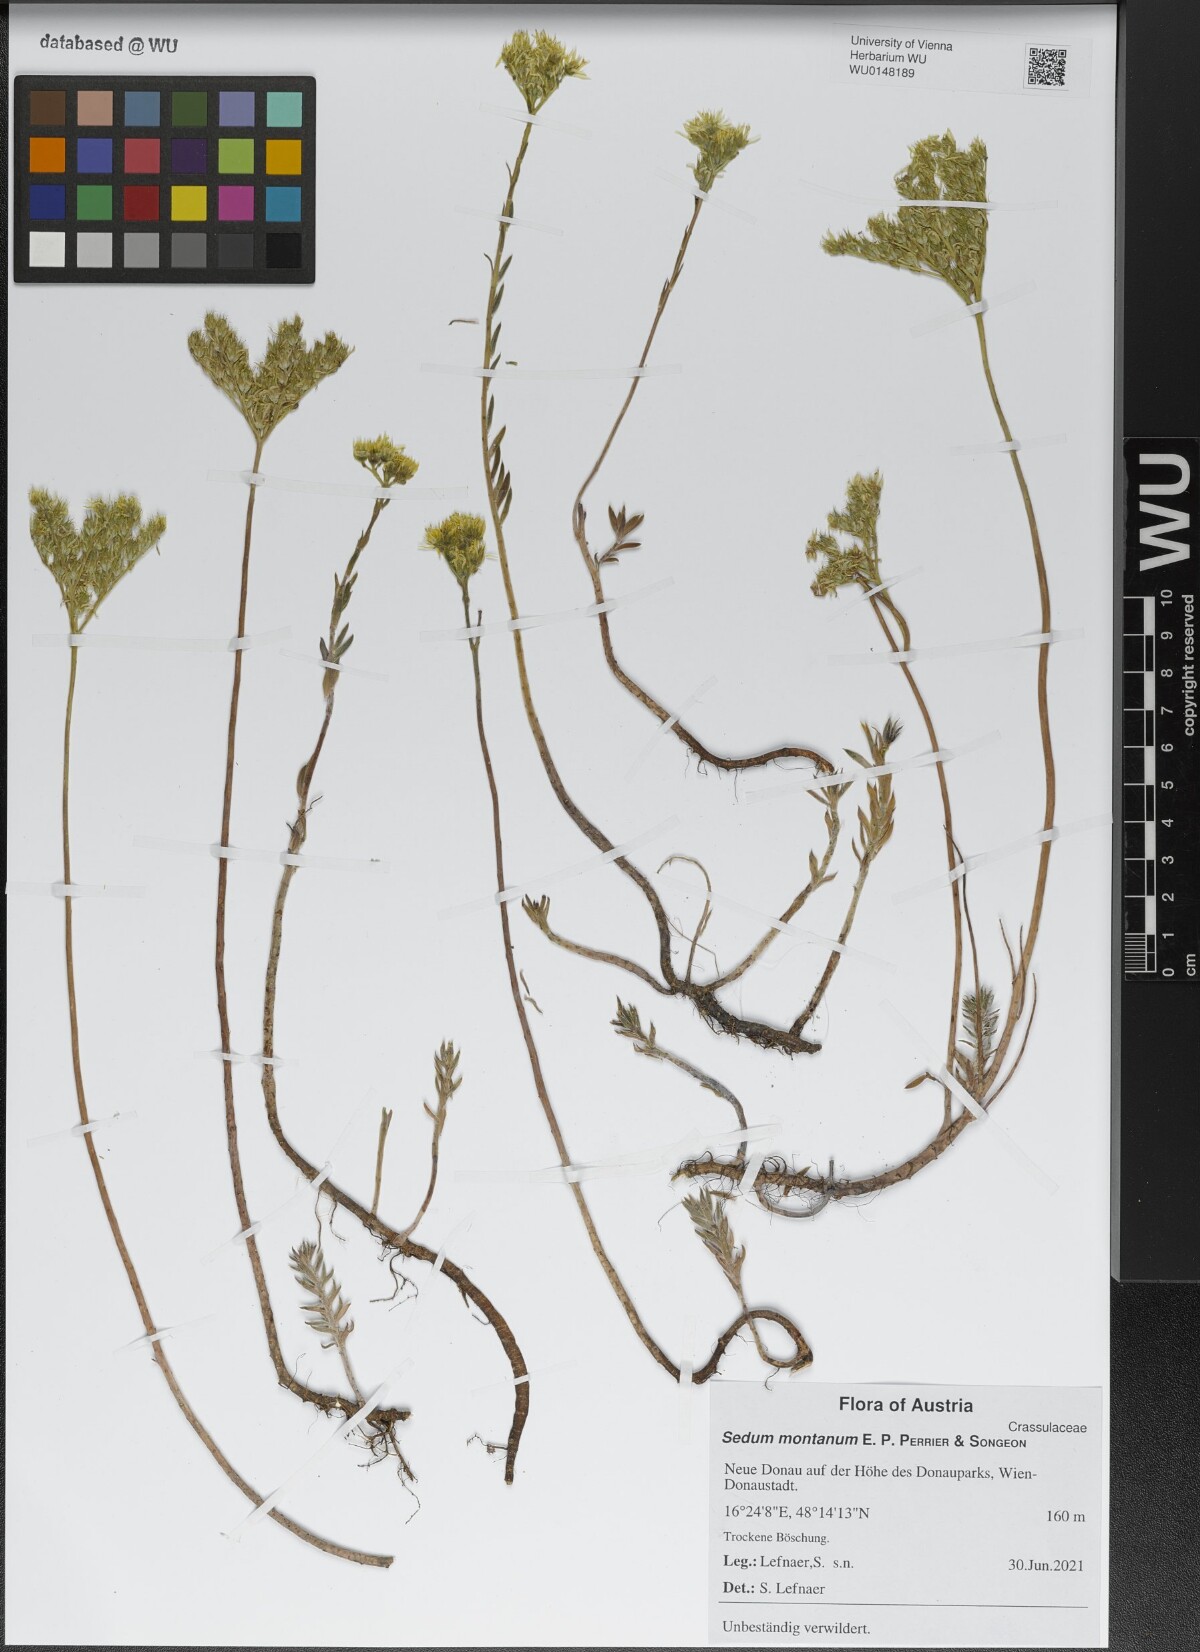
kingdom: Plantae
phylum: Tracheophyta
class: Magnoliopsida
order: Saxifragales
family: Crassulaceae
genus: Petrosedum
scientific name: Petrosedum montanum
